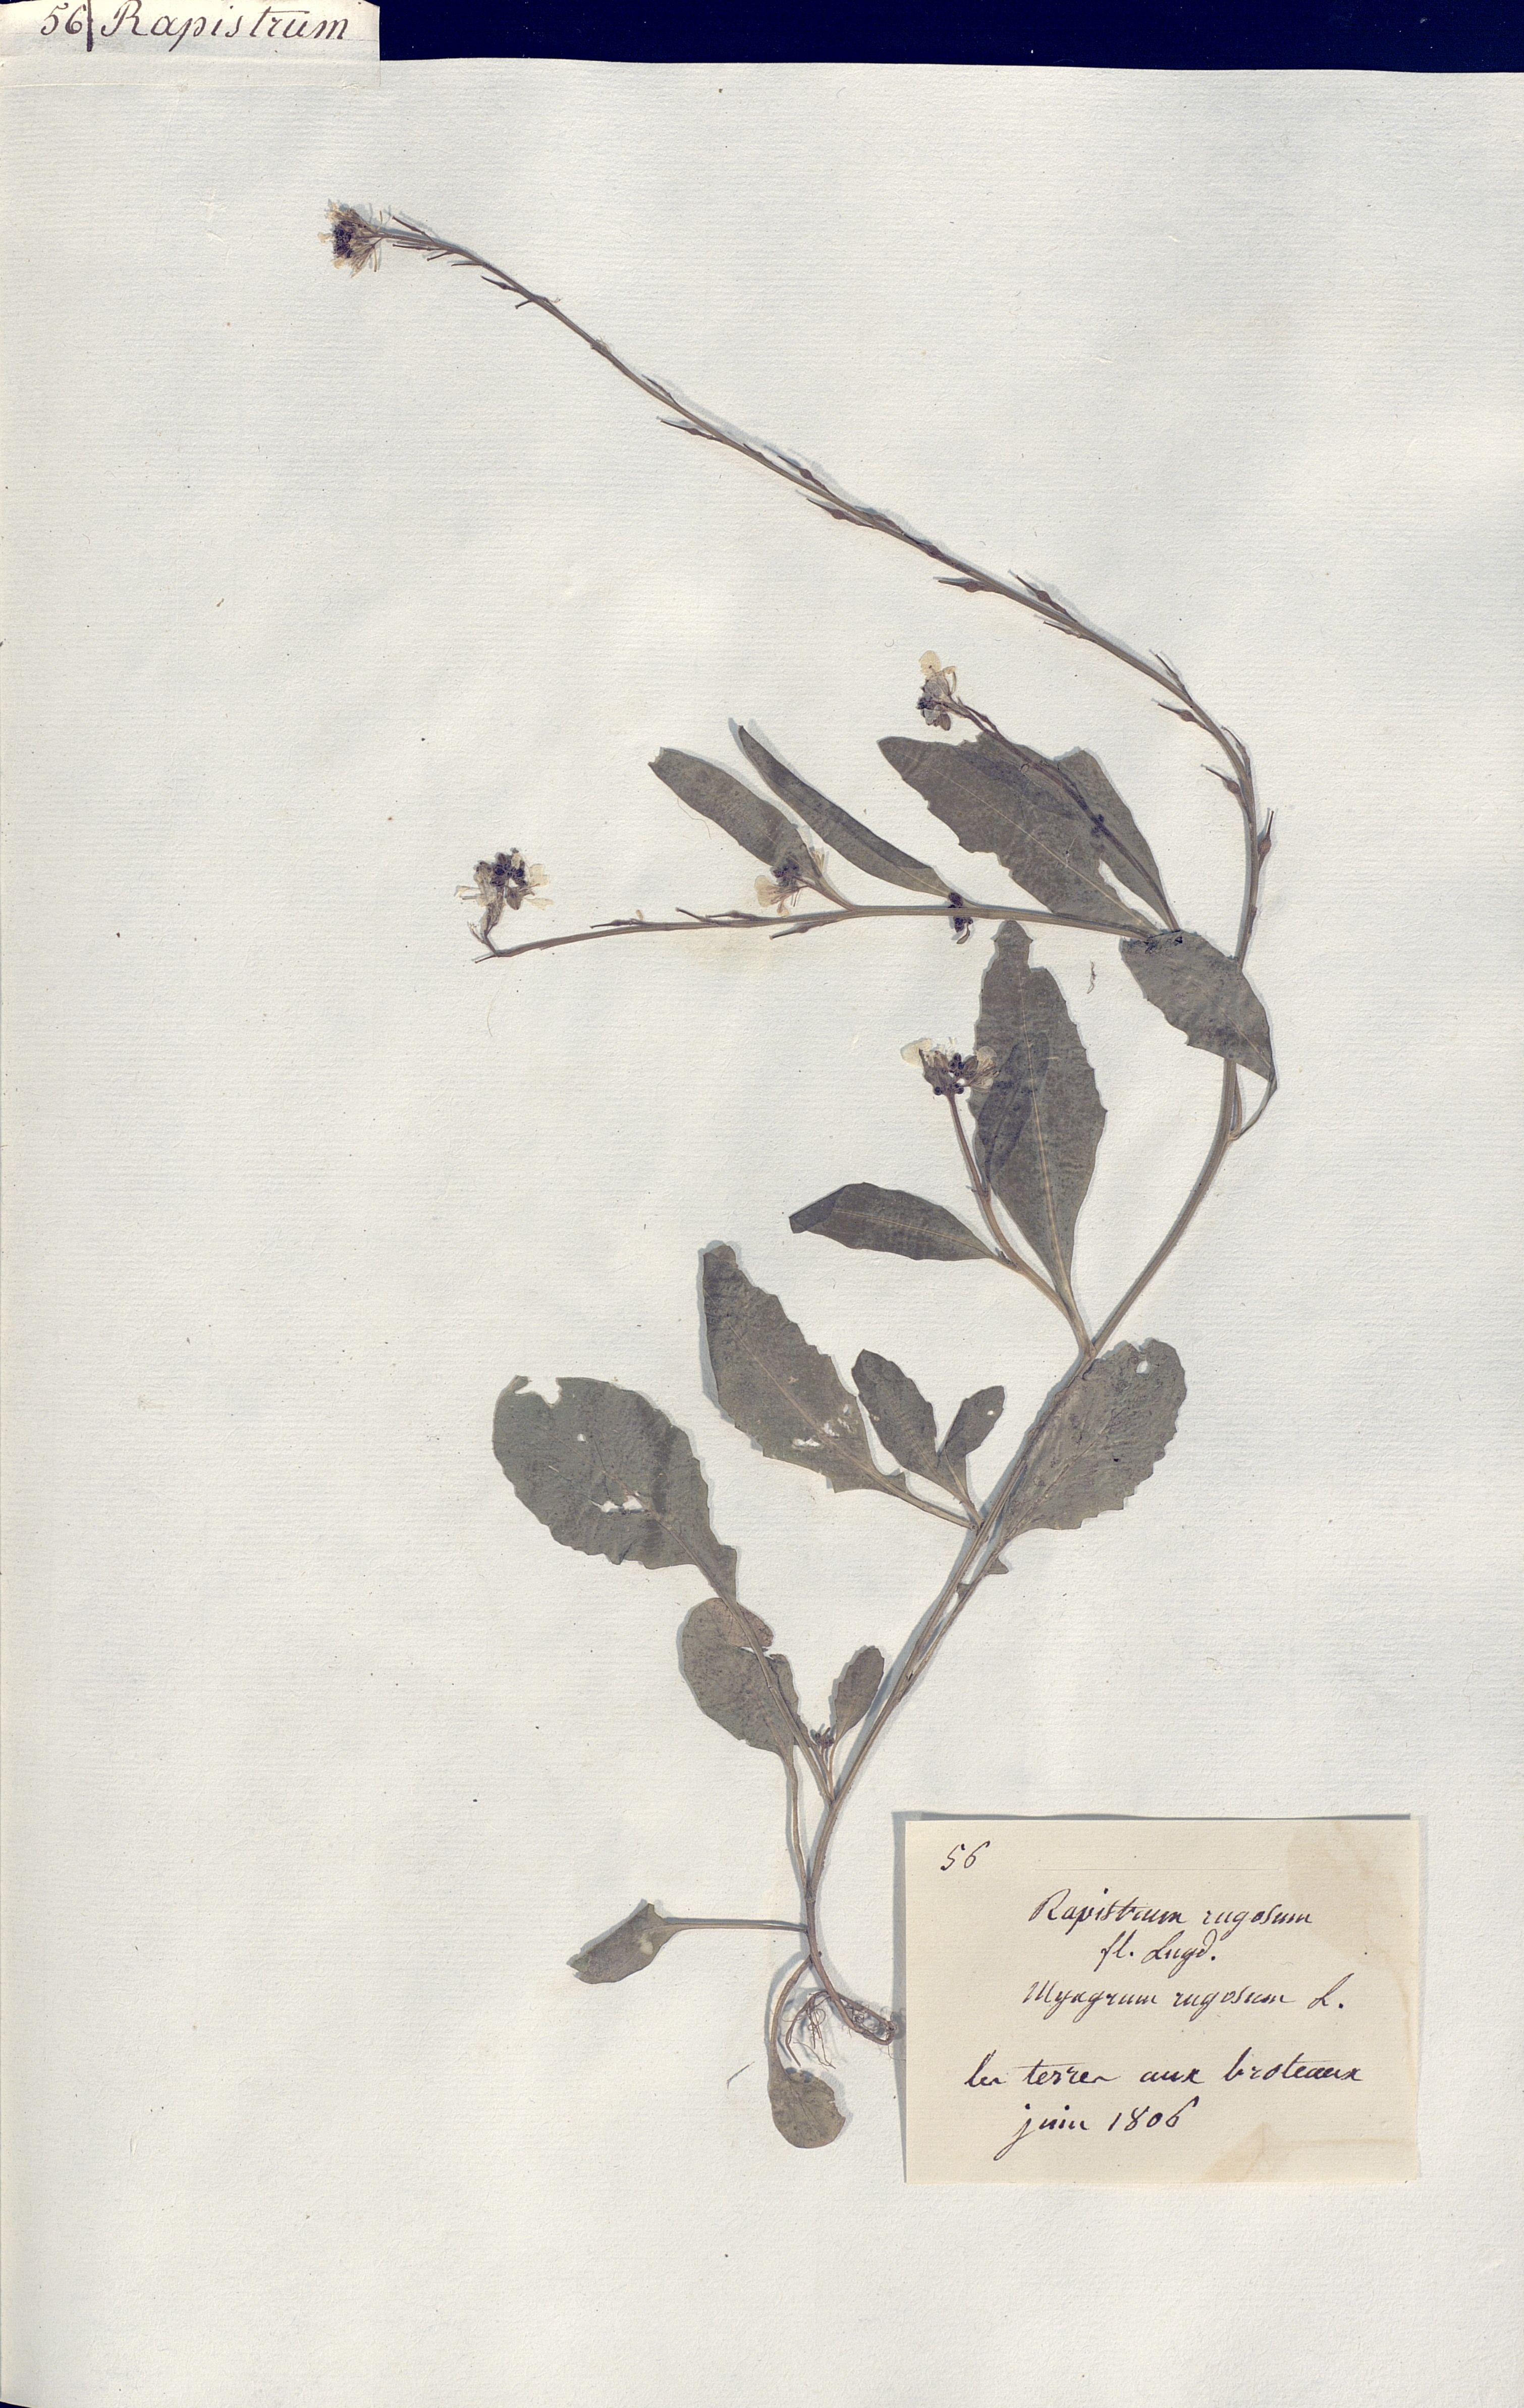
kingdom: Plantae
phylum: Tracheophyta
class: Magnoliopsida
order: Brassicales
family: Brassicaceae
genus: Rapistrum
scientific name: Rapistrum rugosum
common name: Annual bastardcabbage
